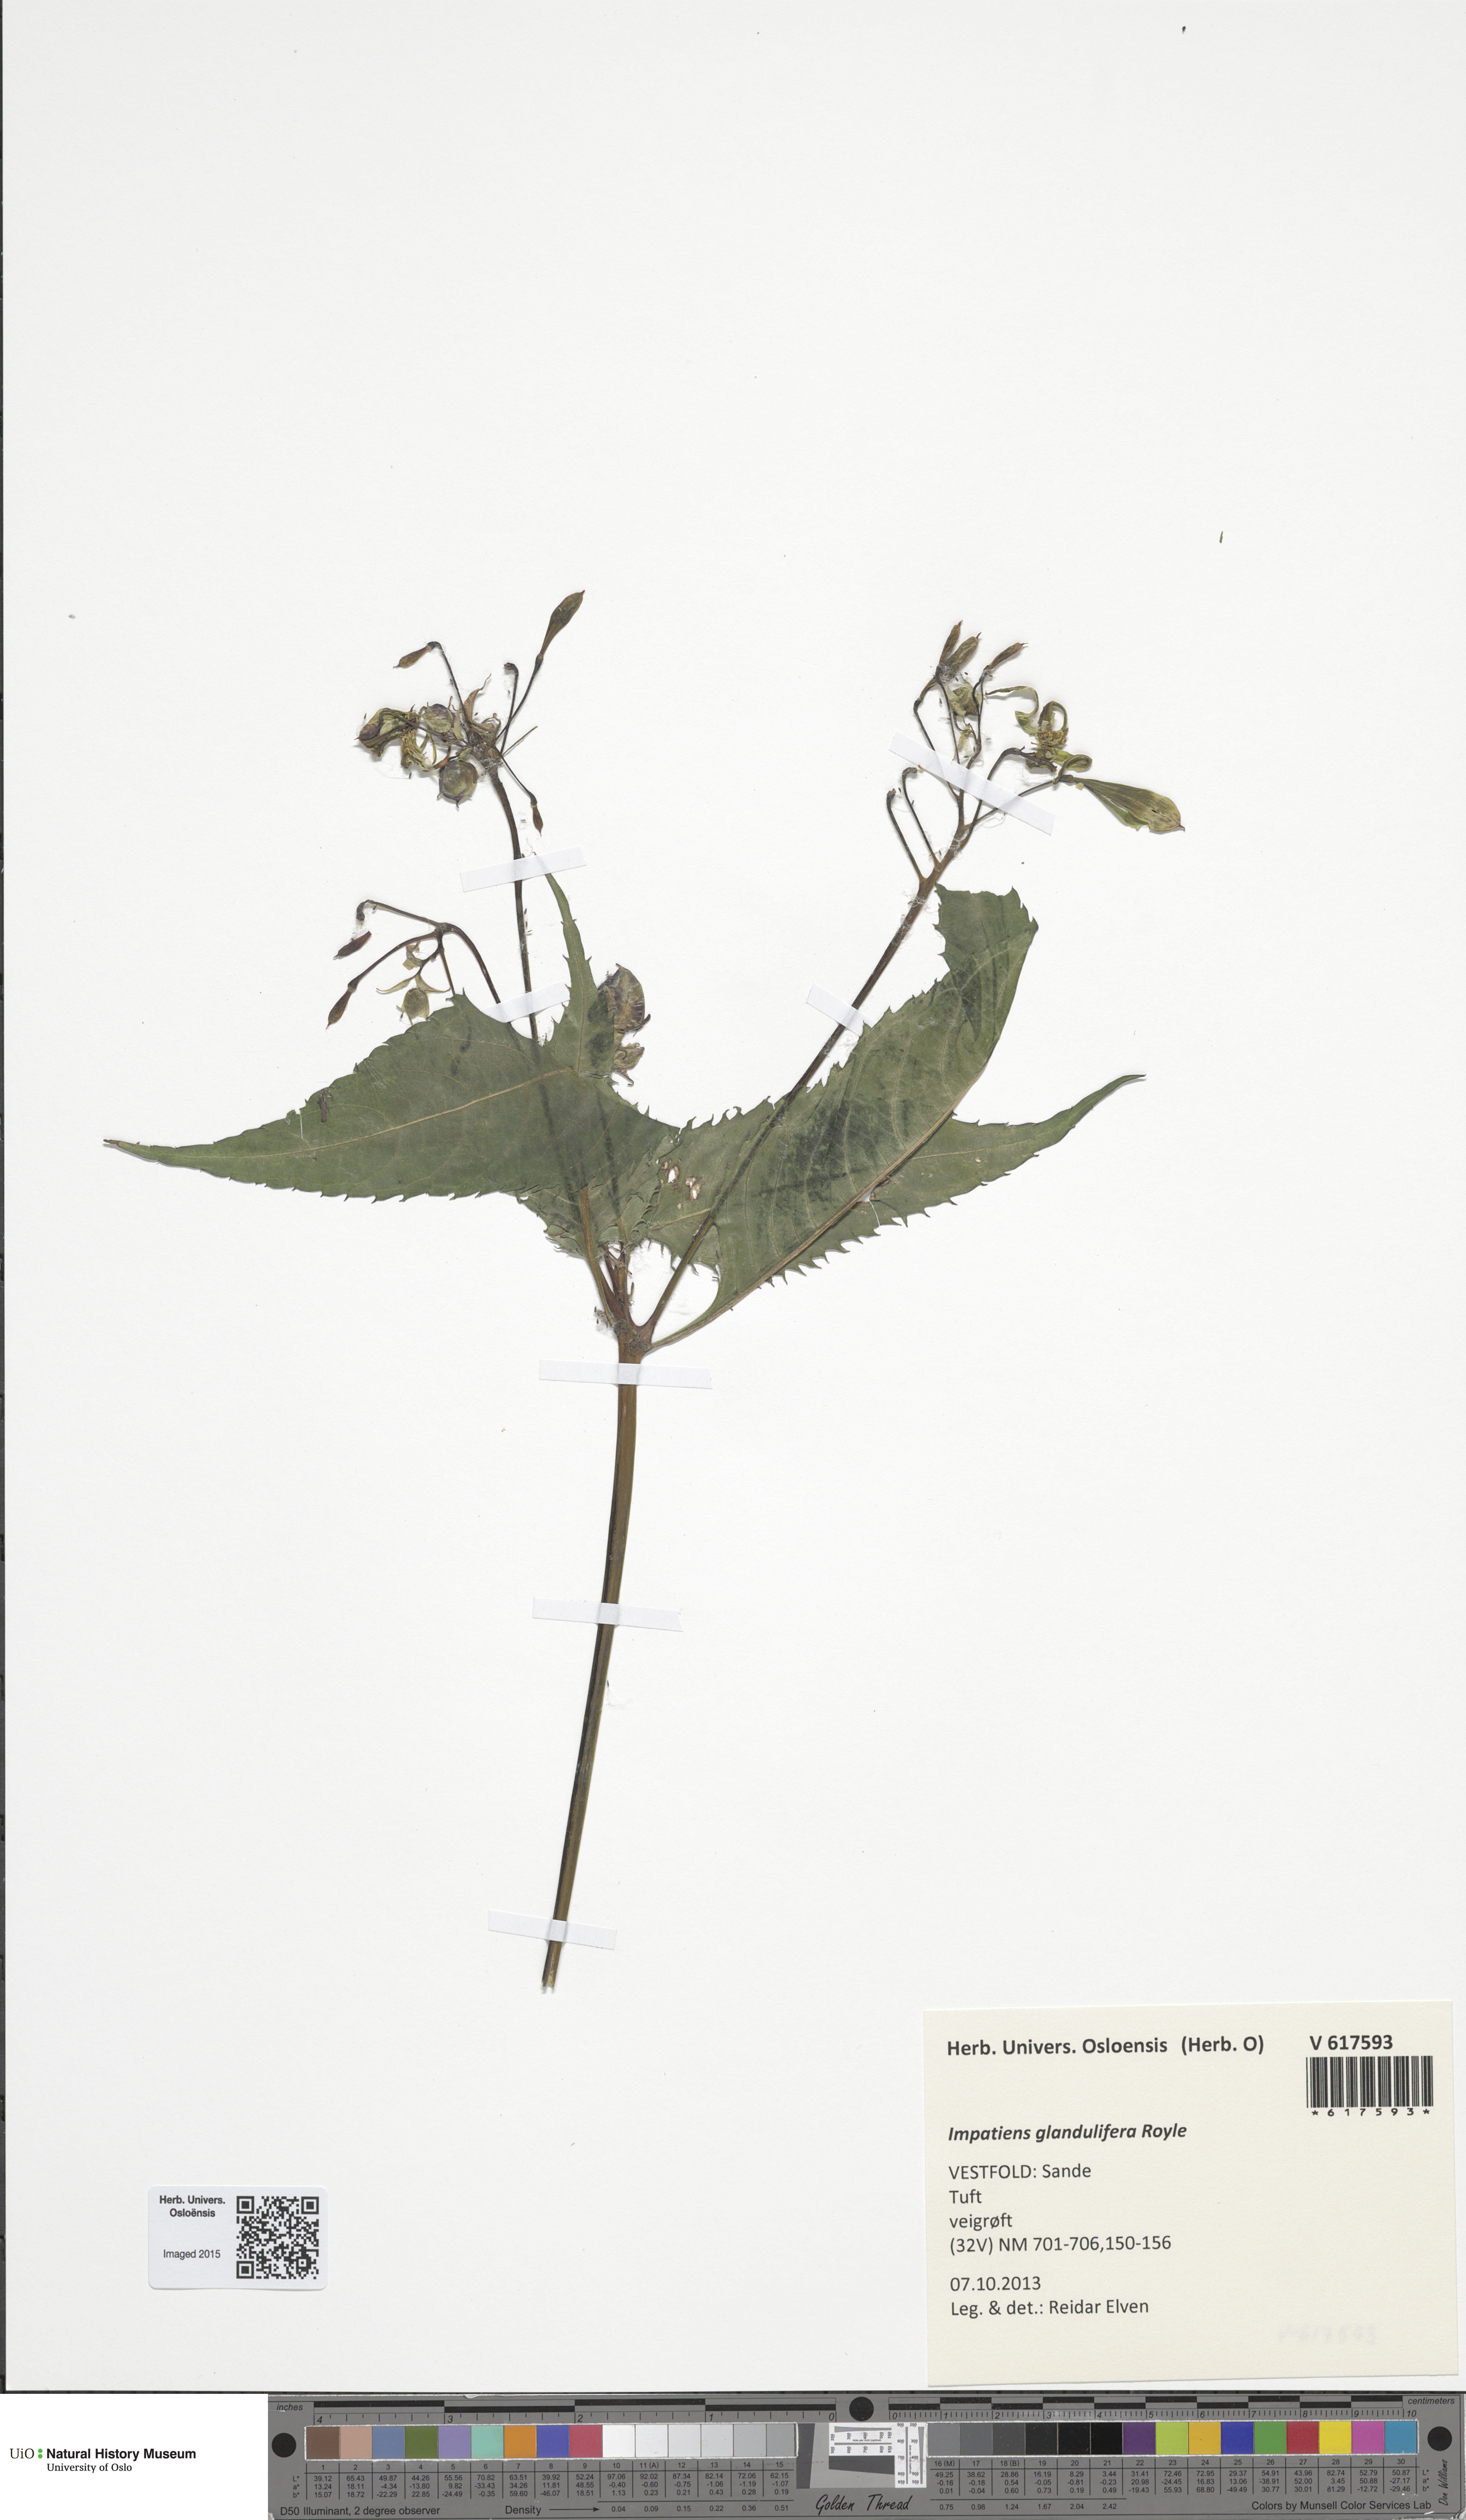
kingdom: Plantae
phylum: Tracheophyta
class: Magnoliopsida
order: Ericales
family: Balsaminaceae
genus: Impatiens
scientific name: Impatiens glandulifera
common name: Himalayan balsam
